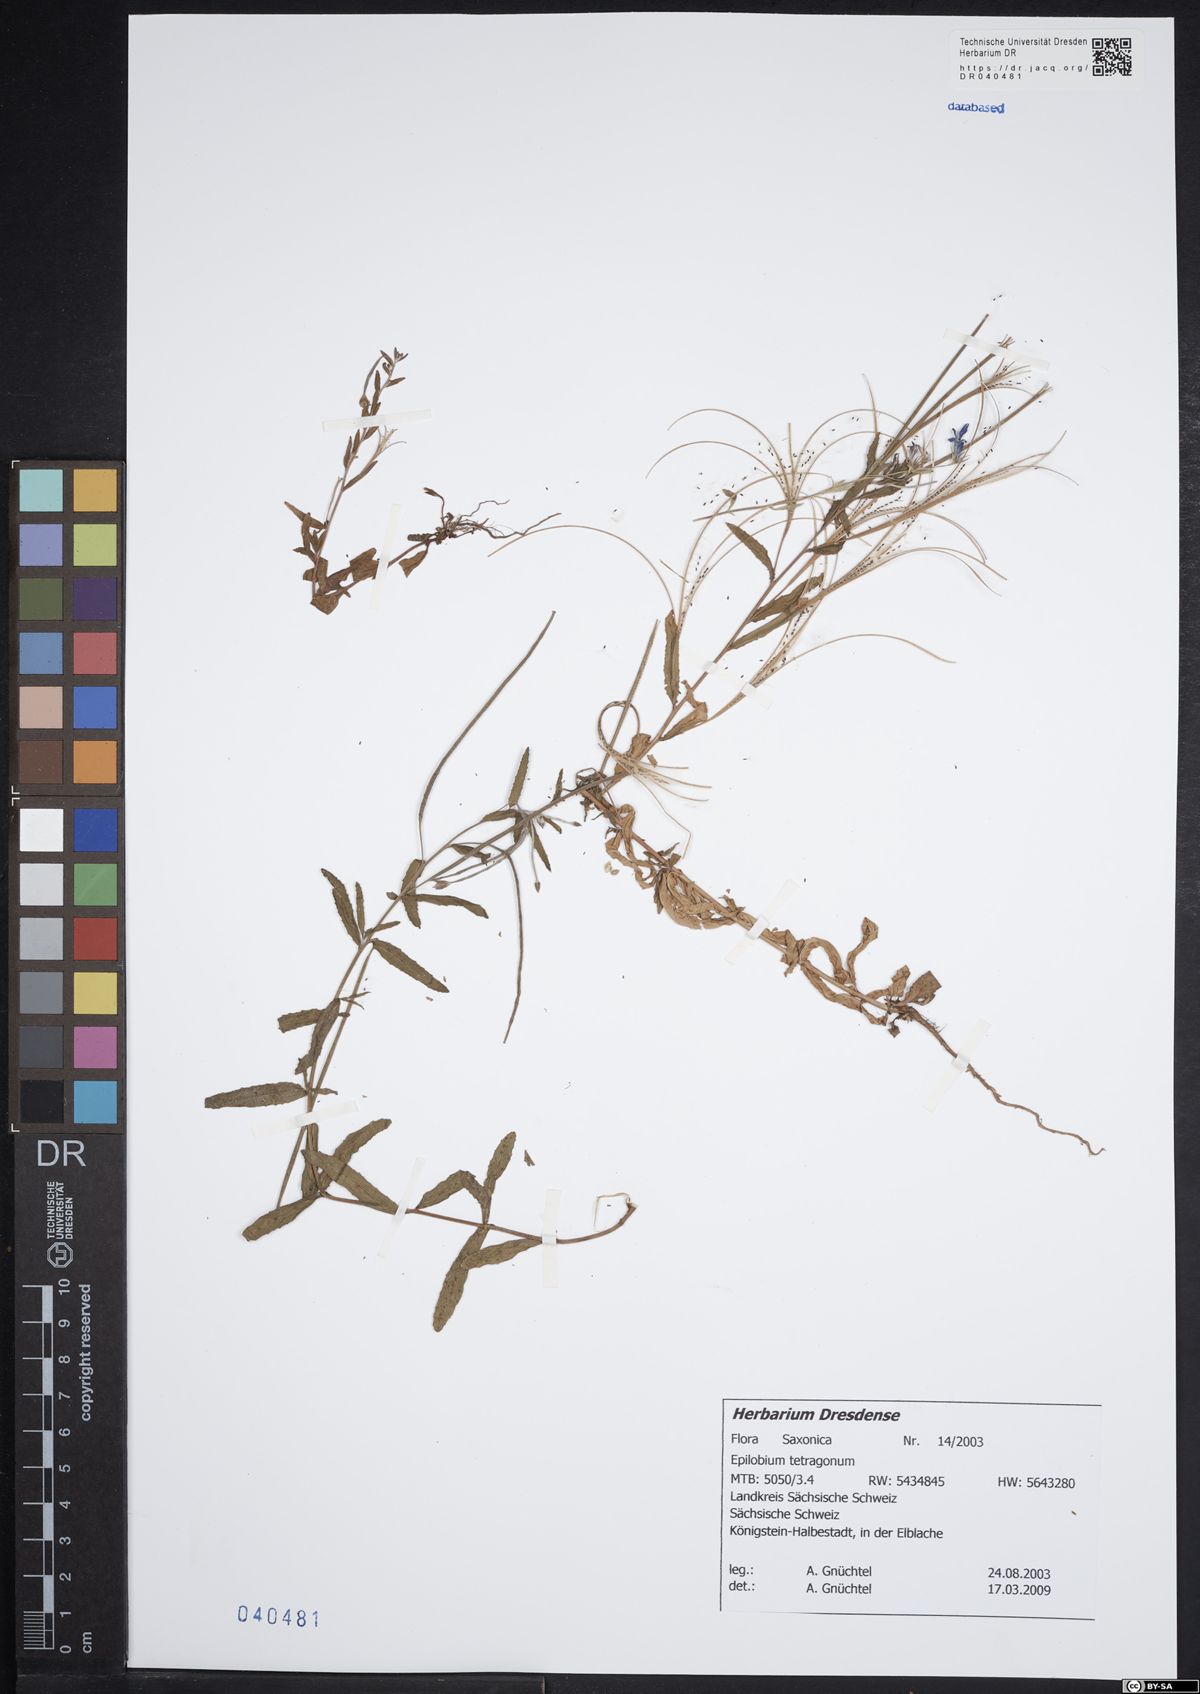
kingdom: Plantae
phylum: Tracheophyta
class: Magnoliopsida
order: Myrtales
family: Onagraceae
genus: Epilobium
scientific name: Epilobium tetragonum
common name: Square-stemmed willowherb
